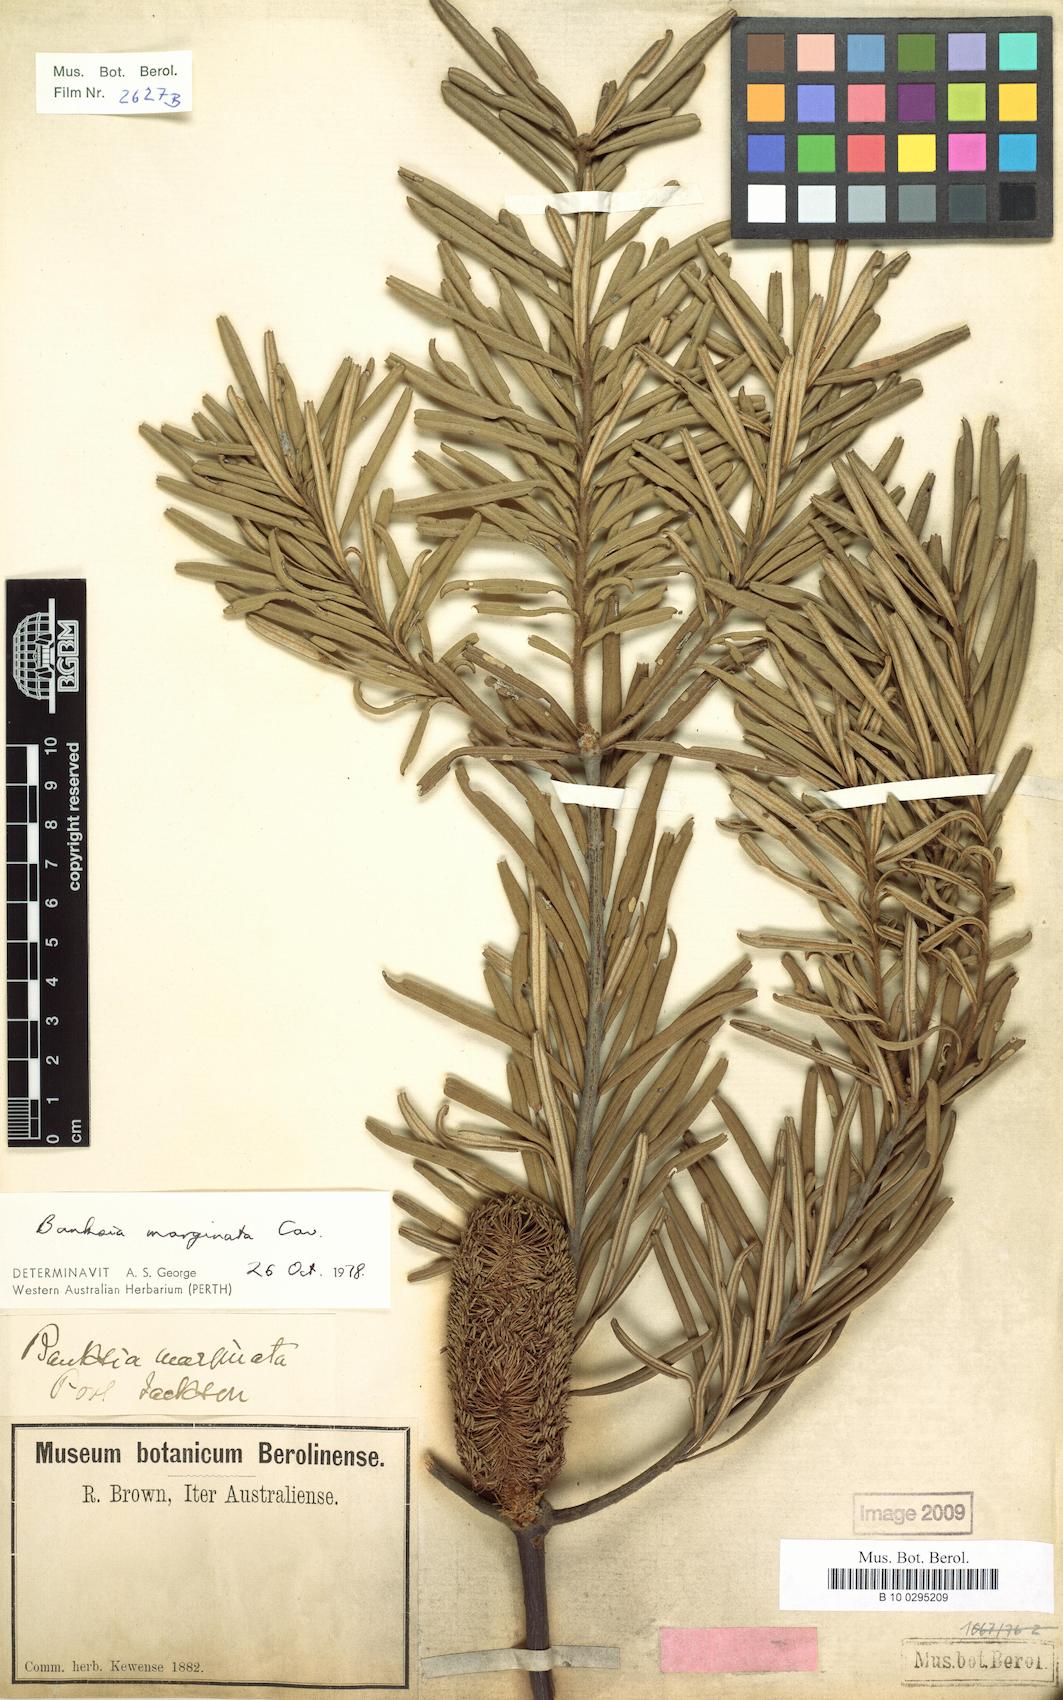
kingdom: Plantae
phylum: Tracheophyta
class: Magnoliopsida
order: Proteales
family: Proteaceae
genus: Banksia
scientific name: Banksia marginata
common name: Silver banksia
